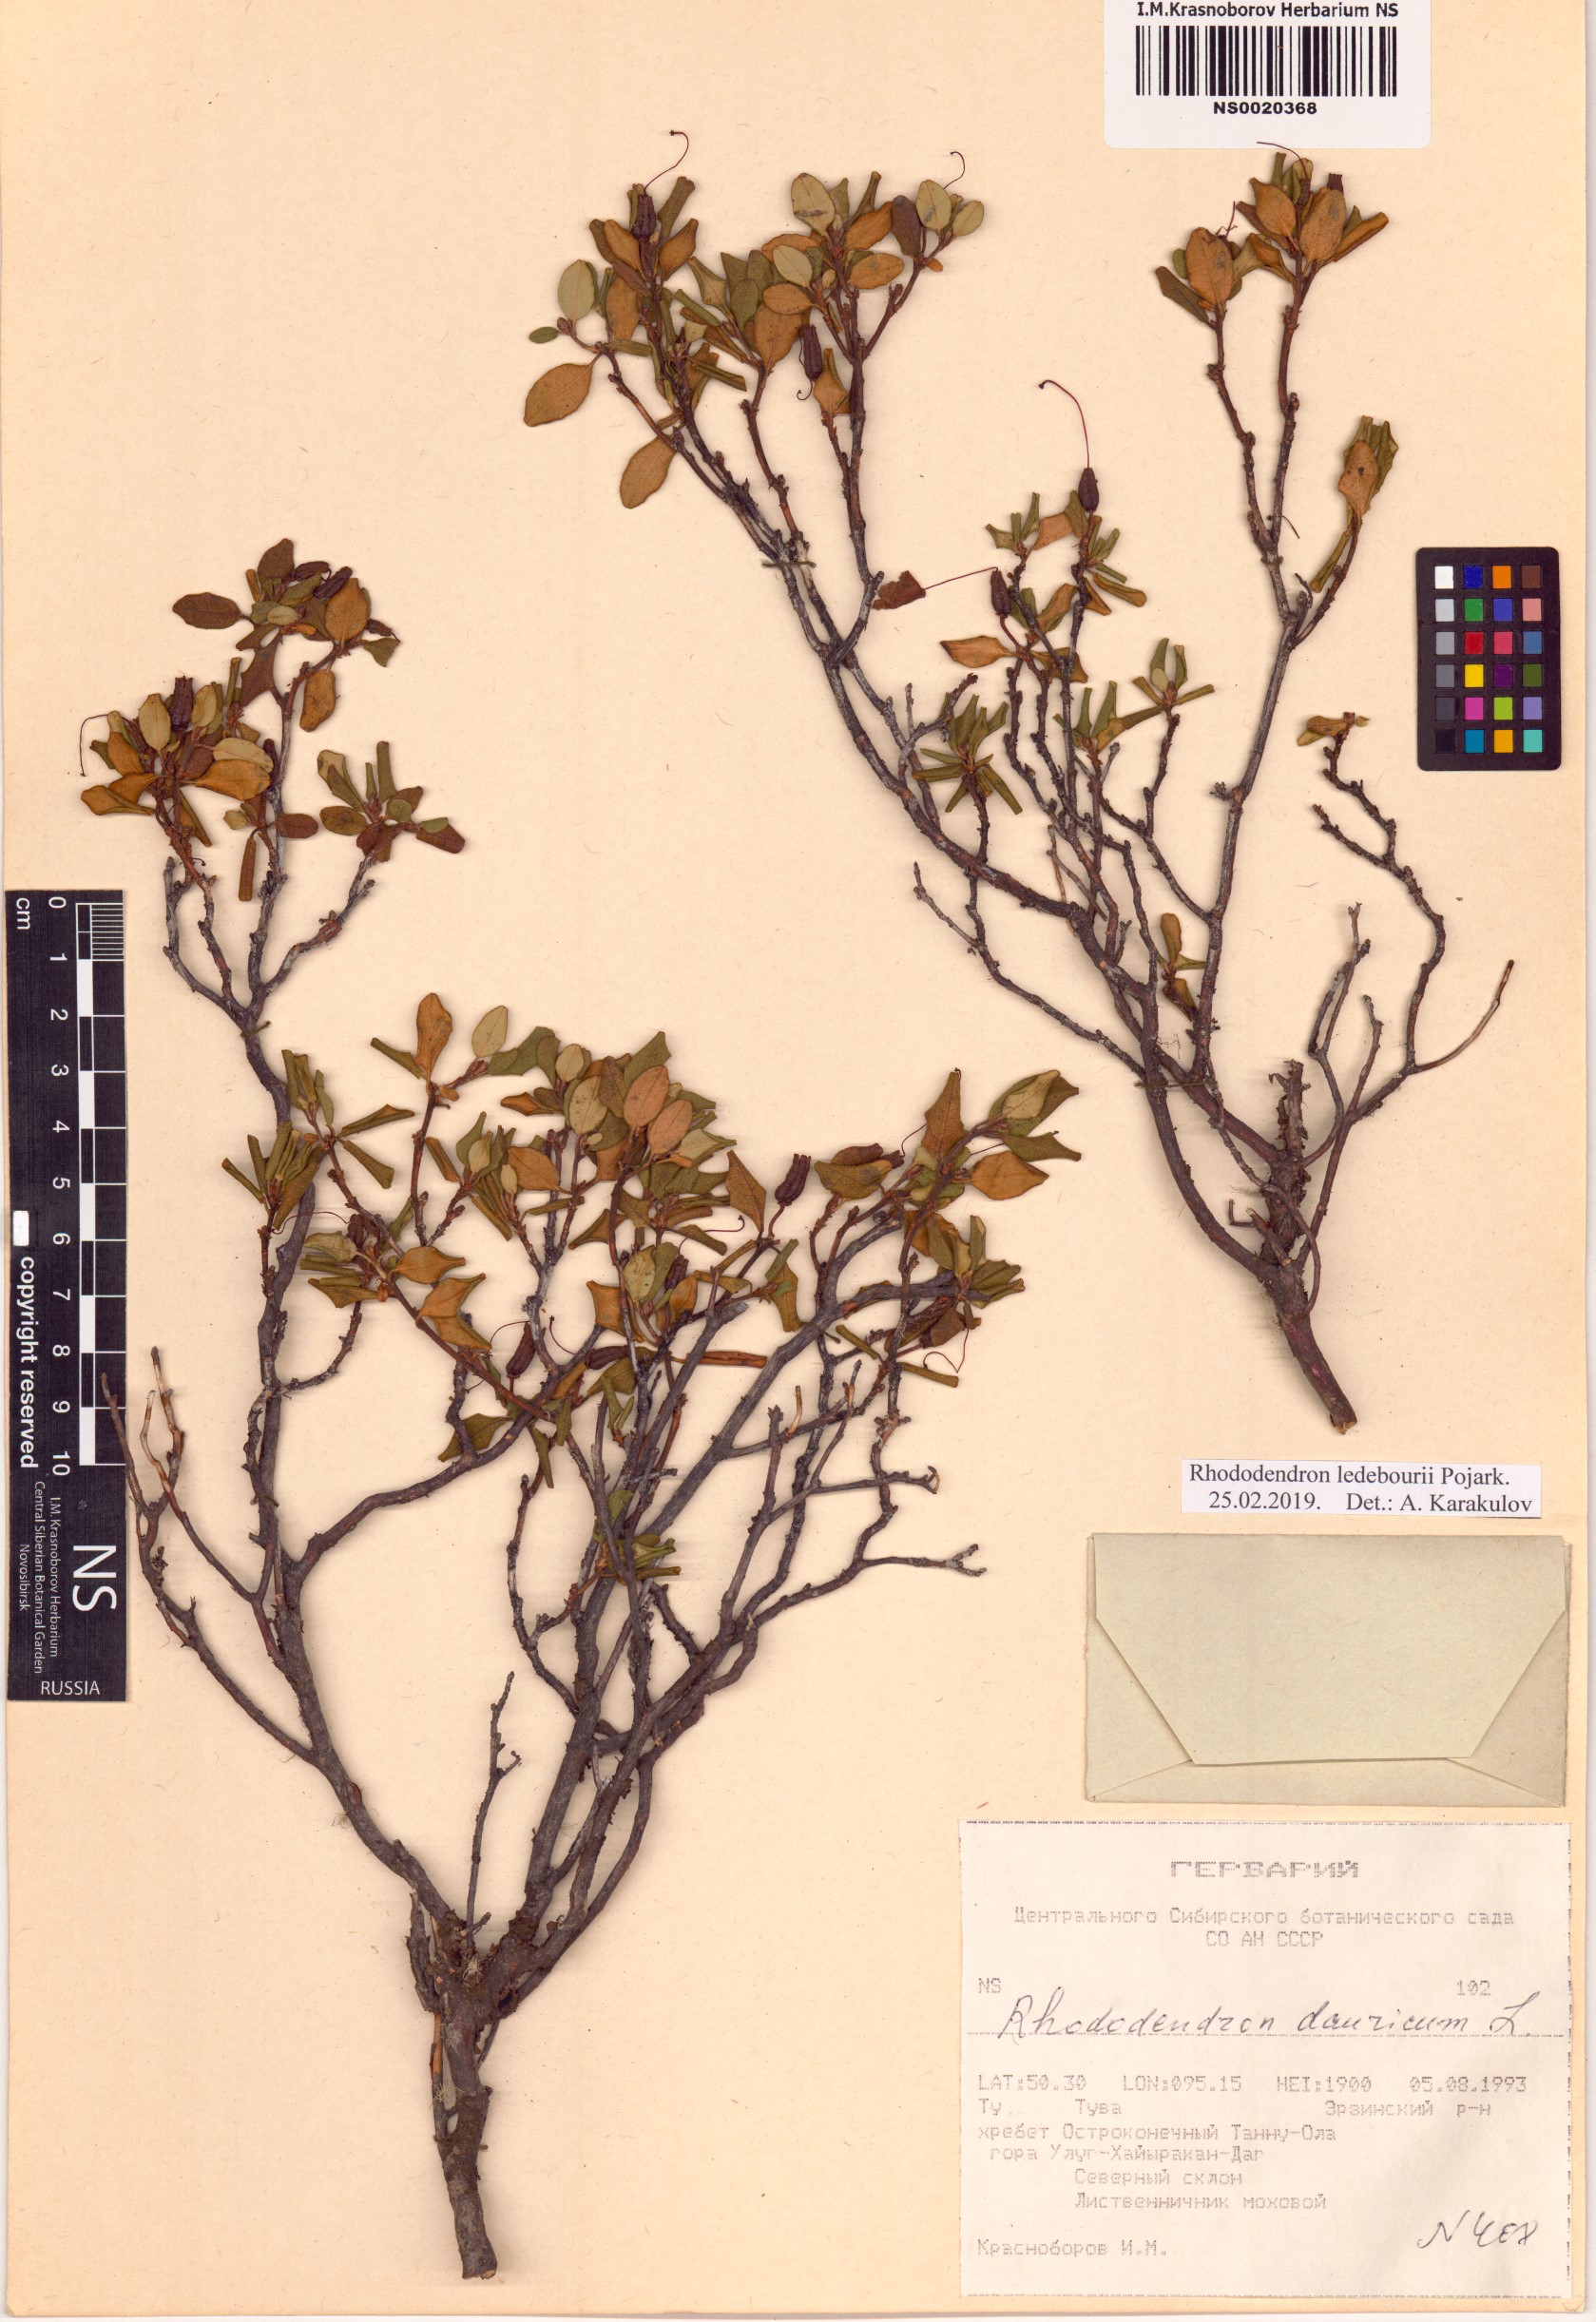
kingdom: Plantae
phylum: Tracheophyta
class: Magnoliopsida
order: Ericales
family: Ericaceae
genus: Rhododendron
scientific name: Rhododendron dauricum
